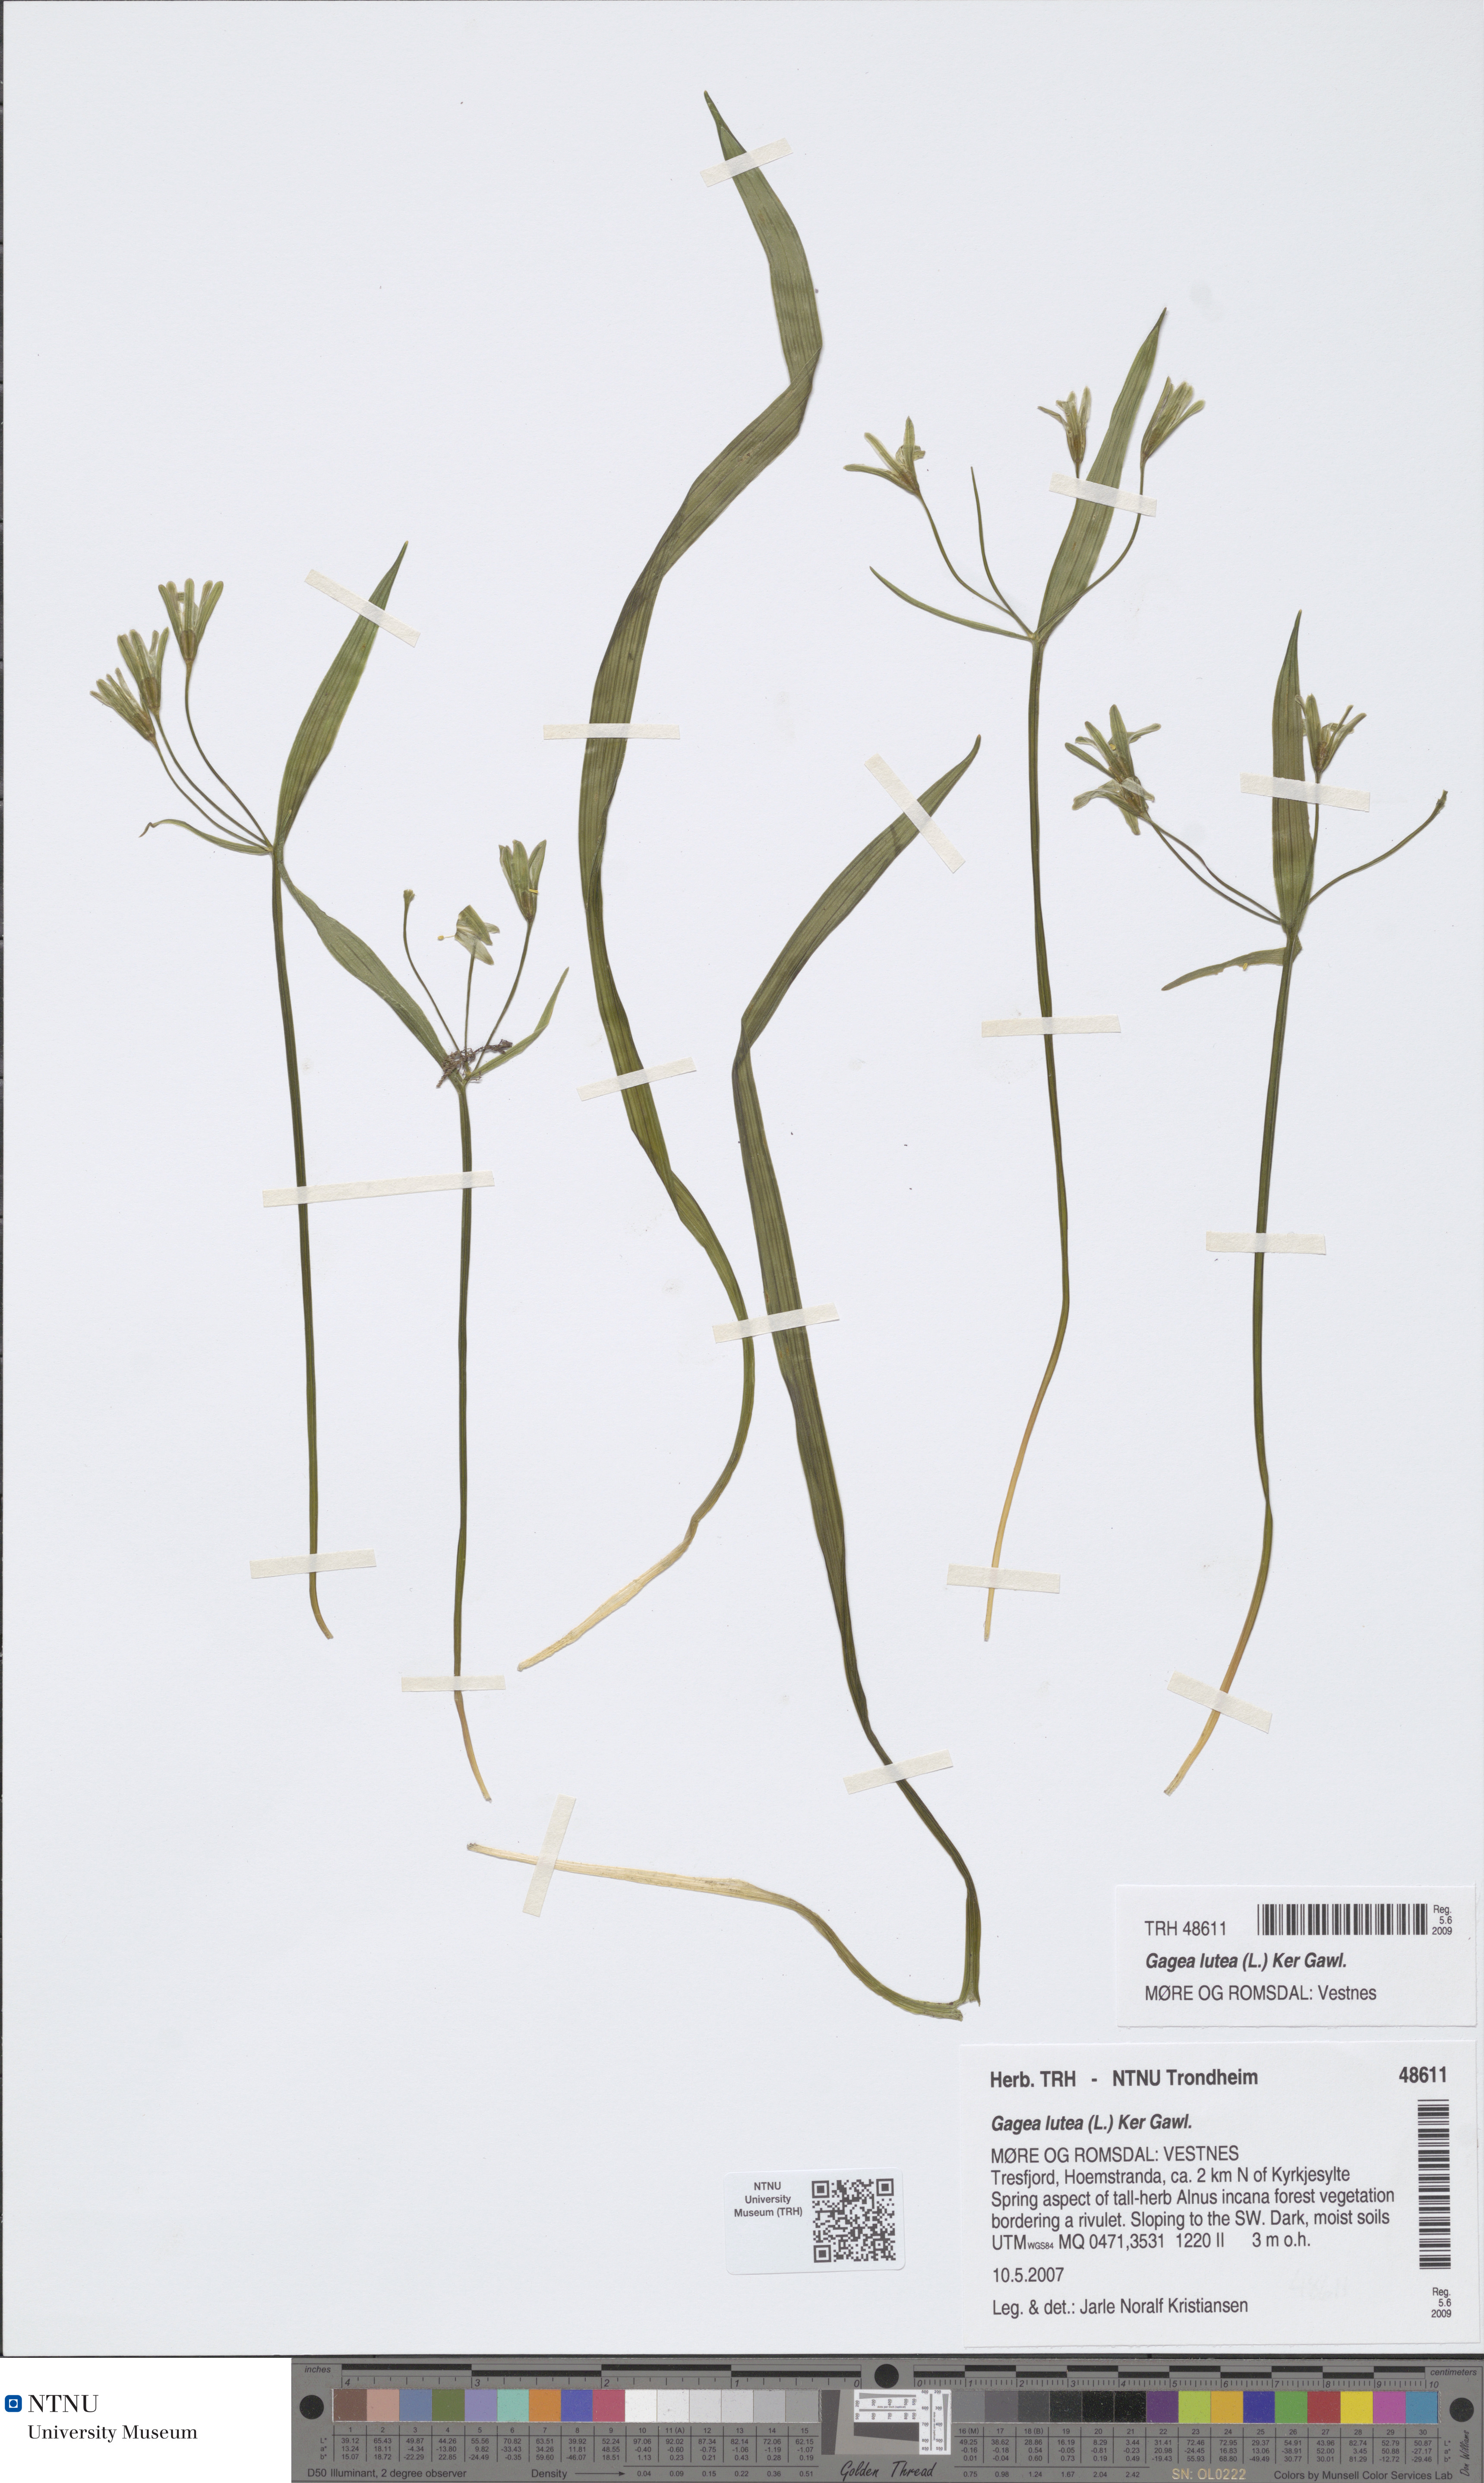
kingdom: Plantae
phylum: Tracheophyta
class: Liliopsida
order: Liliales
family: Liliaceae
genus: Gagea
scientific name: Gagea lutea
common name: Yellow star-of-bethlehem
